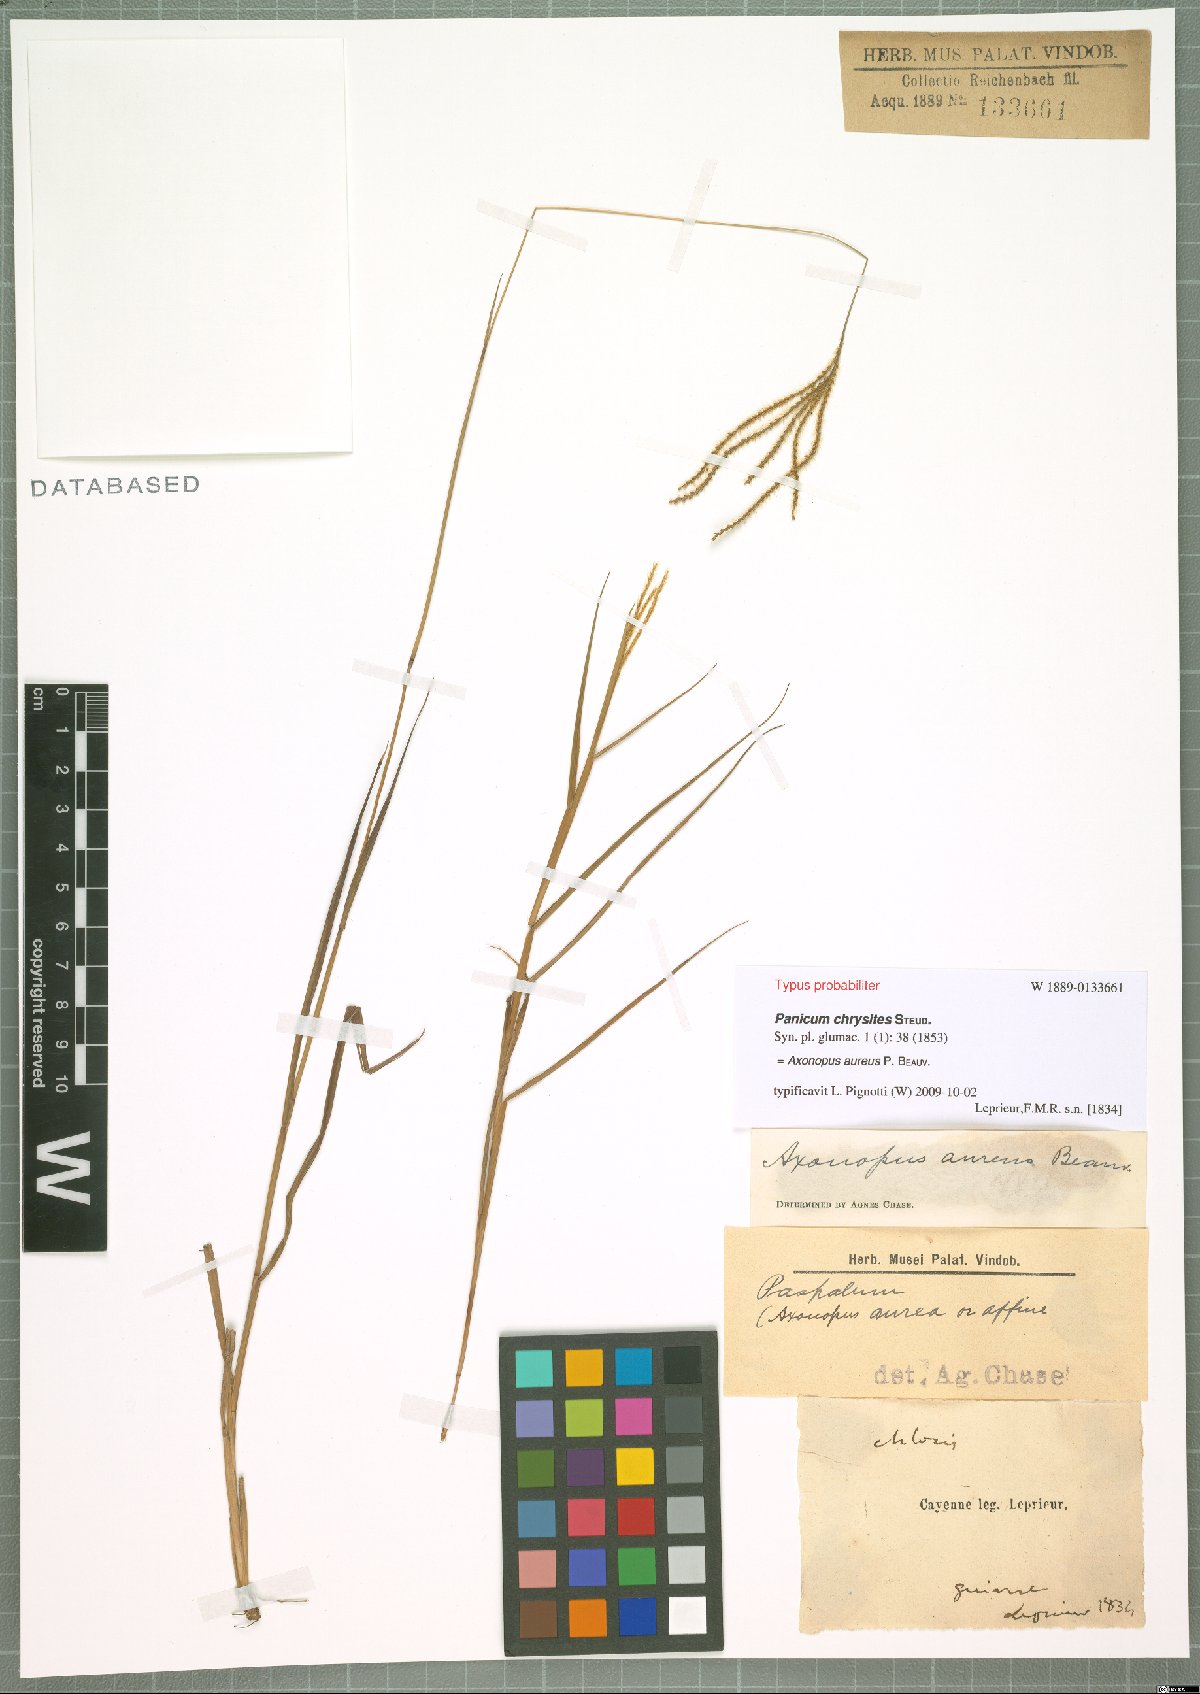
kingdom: Plantae
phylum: Tracheophyta
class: Liliopsida
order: Poales
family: Poaceae
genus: Axonopus
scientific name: Axonopus aureus
